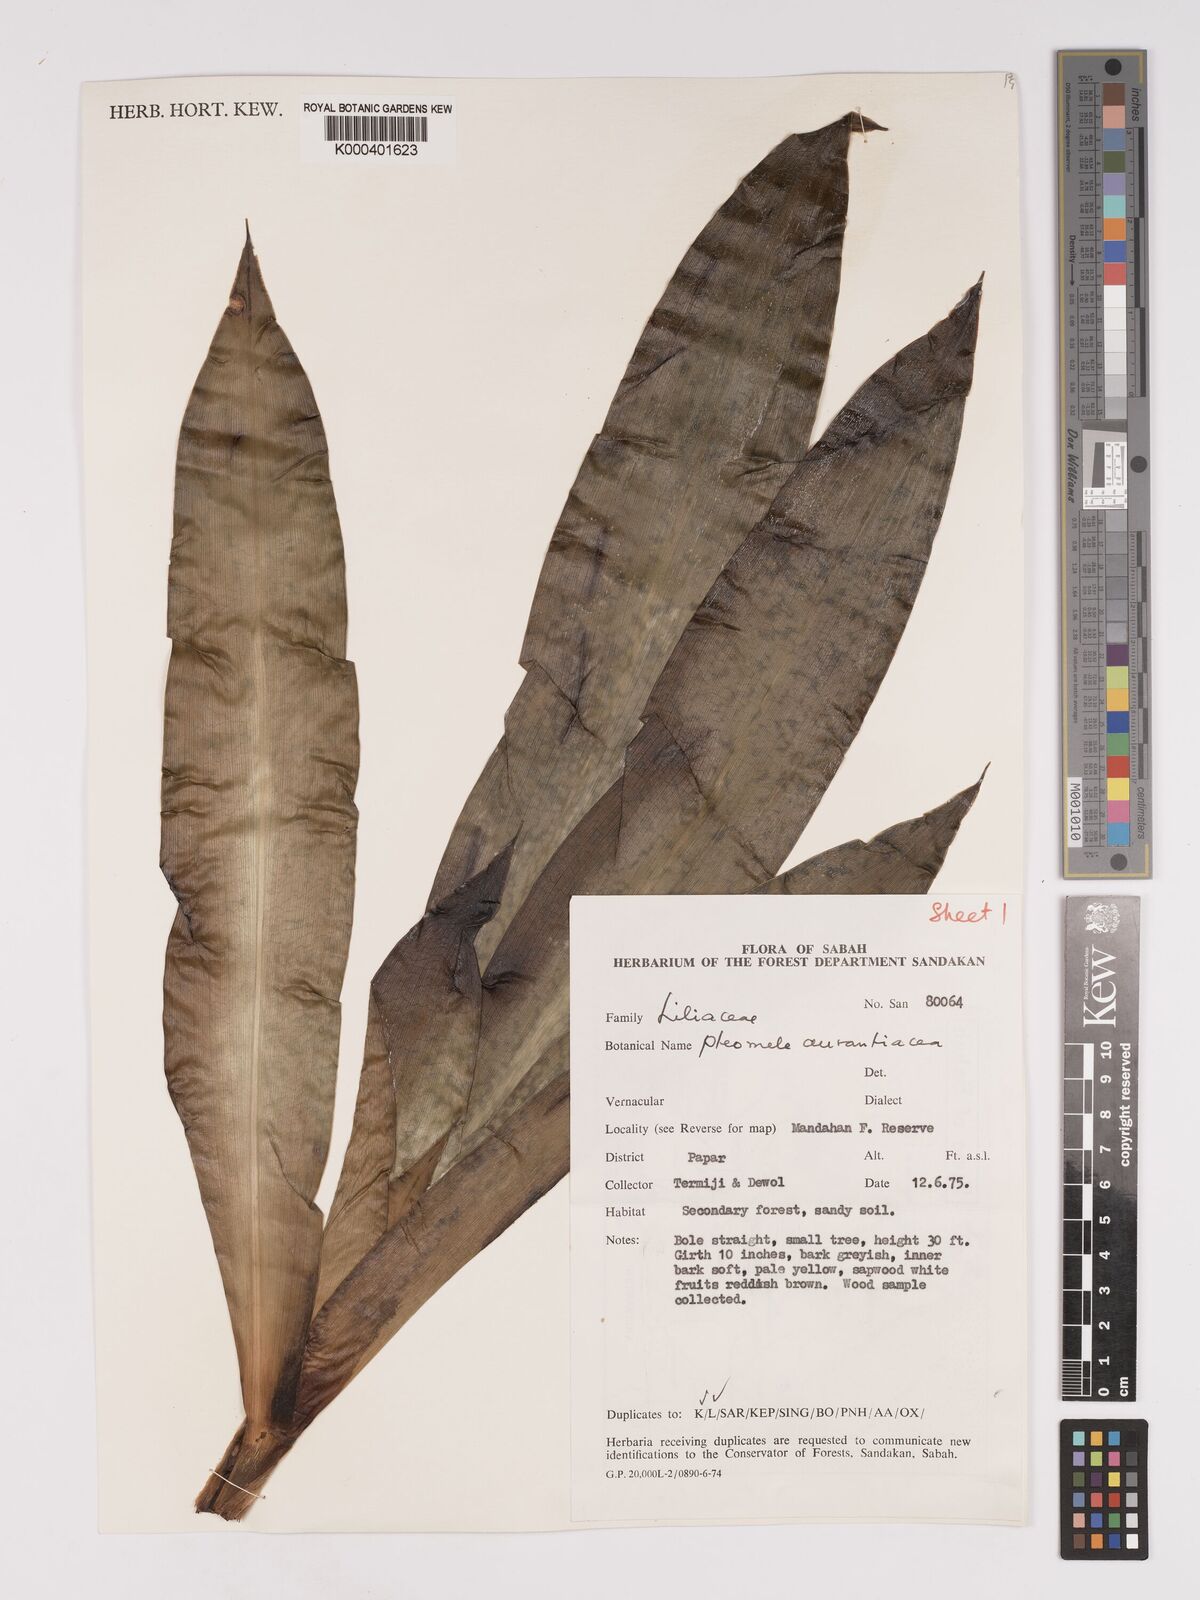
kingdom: Plantae
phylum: Tracheophyta
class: Liliopsida
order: Asparagales
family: Asparagaceae
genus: Dracaena
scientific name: Dracaena
